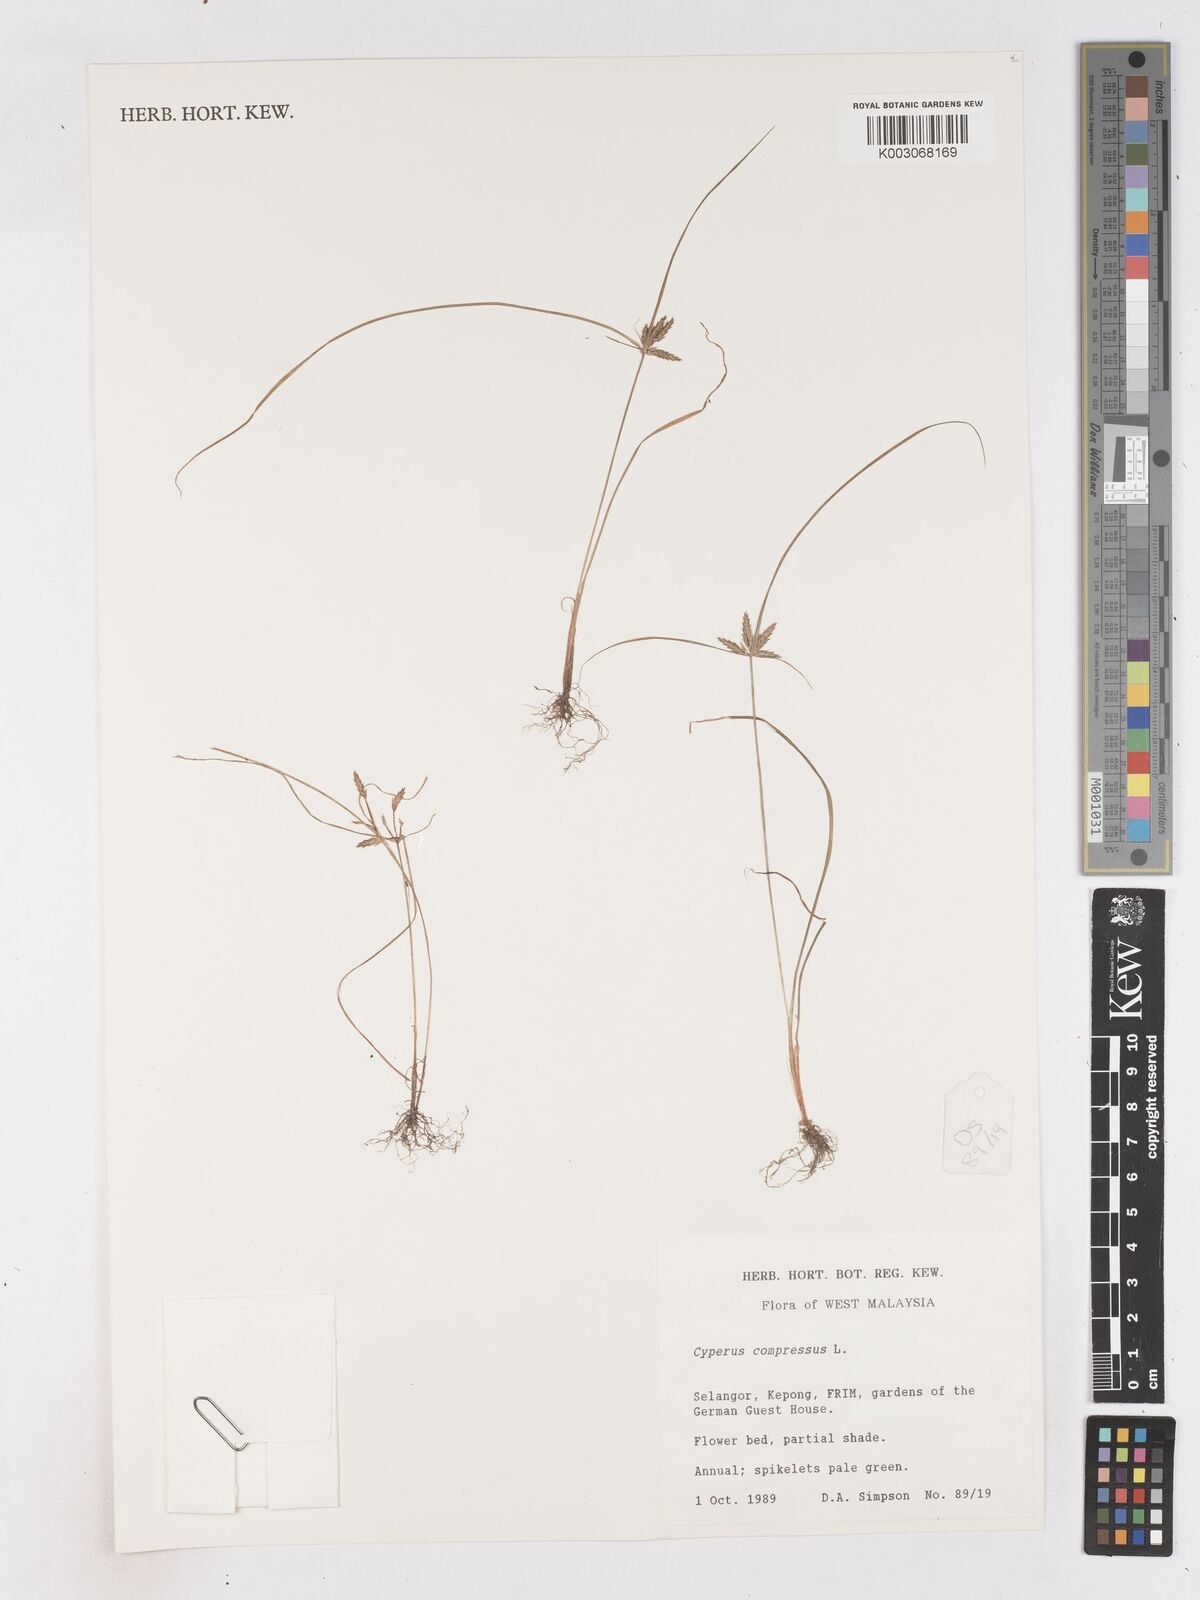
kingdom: Plantae
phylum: Tracheophyta
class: Liliopsida
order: Poales
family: Cyperaceae
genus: Cyperus
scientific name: Cyperus compressus
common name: Poorland flatsedge
